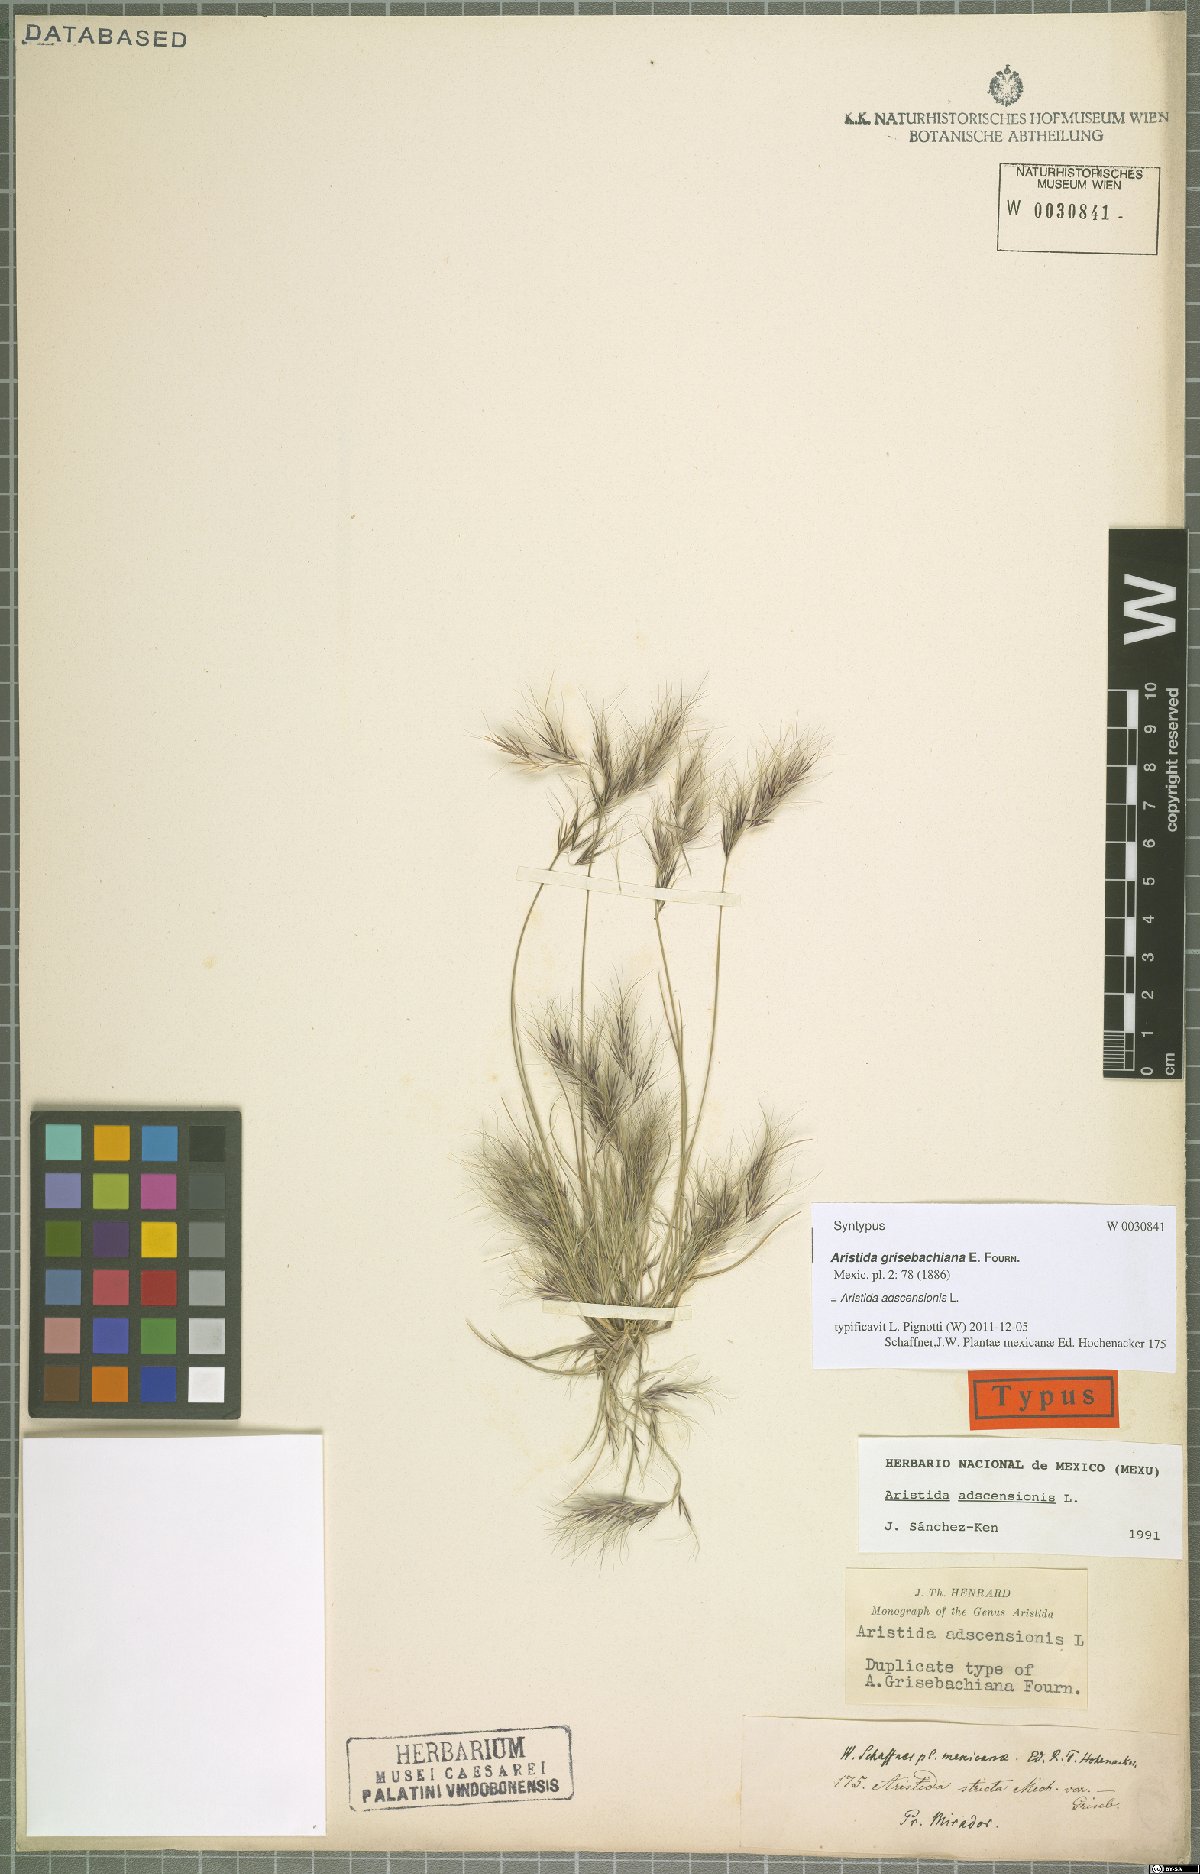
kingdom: Plantae
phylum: Tracheophyta
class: Liliopsida
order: Poales
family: Poaceae
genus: Aristida
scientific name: Aristida adscensionis
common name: Sixweeks threeawn
